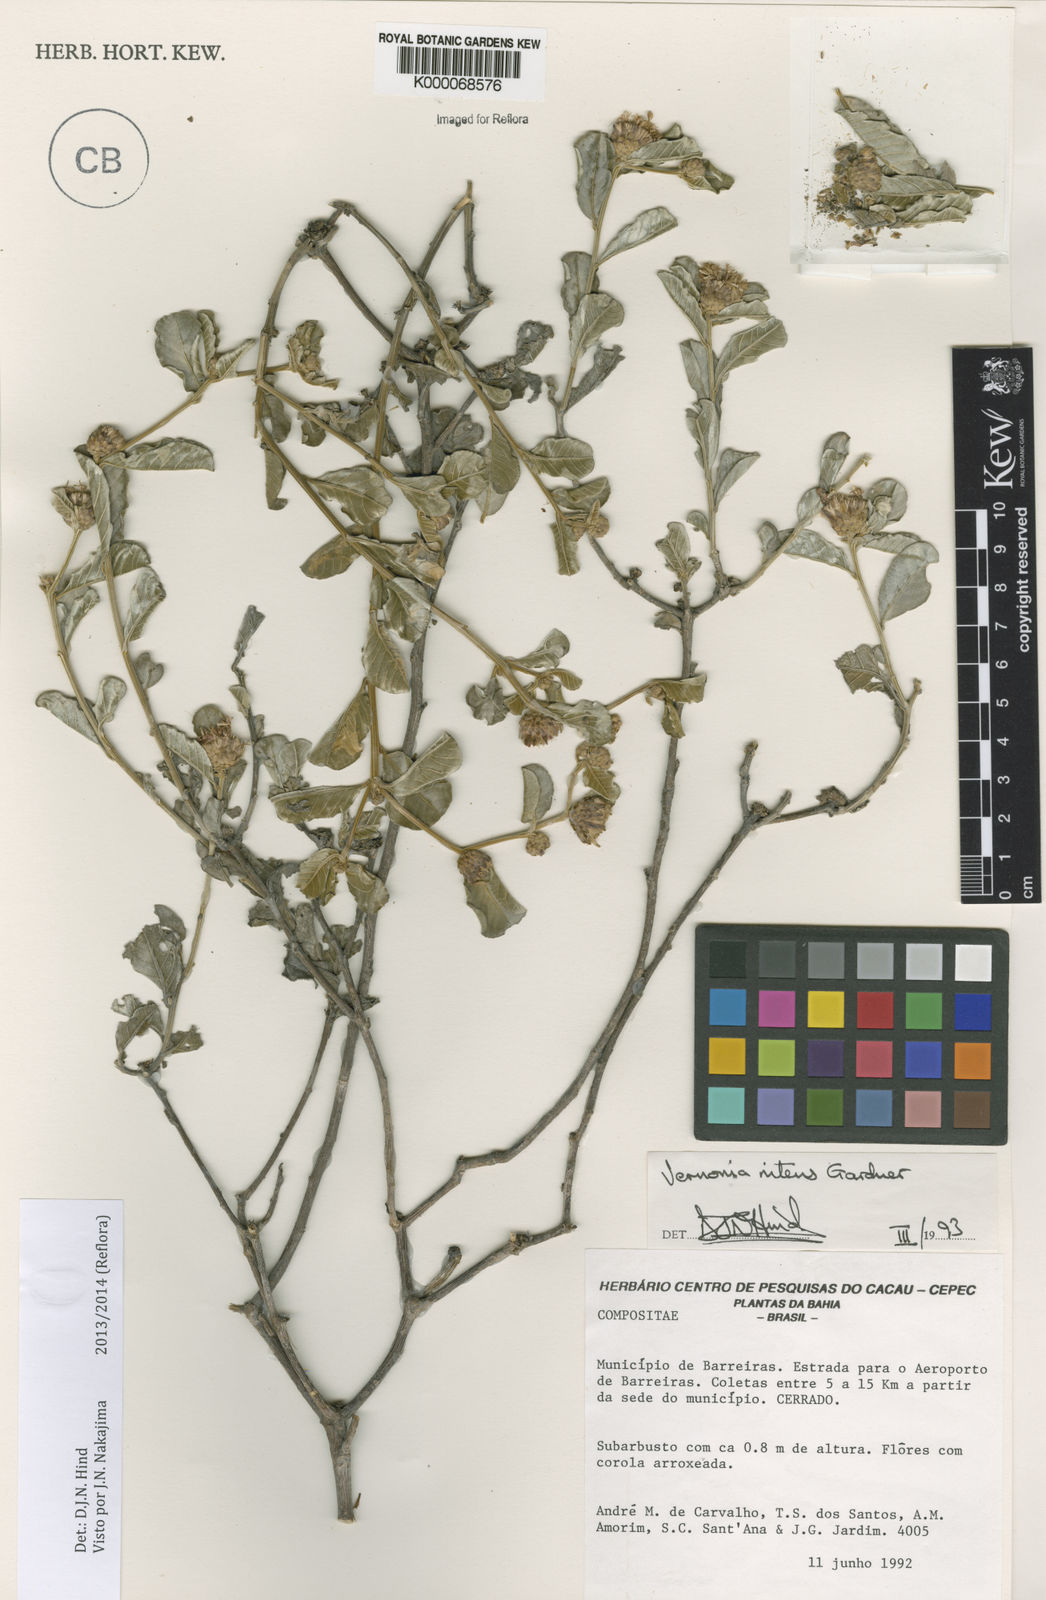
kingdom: Plantae
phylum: Tracheophyta
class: Magnoliopsida
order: Asterales
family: Asteraceae
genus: Lepidaploa
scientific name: Lepidaploa nitens
